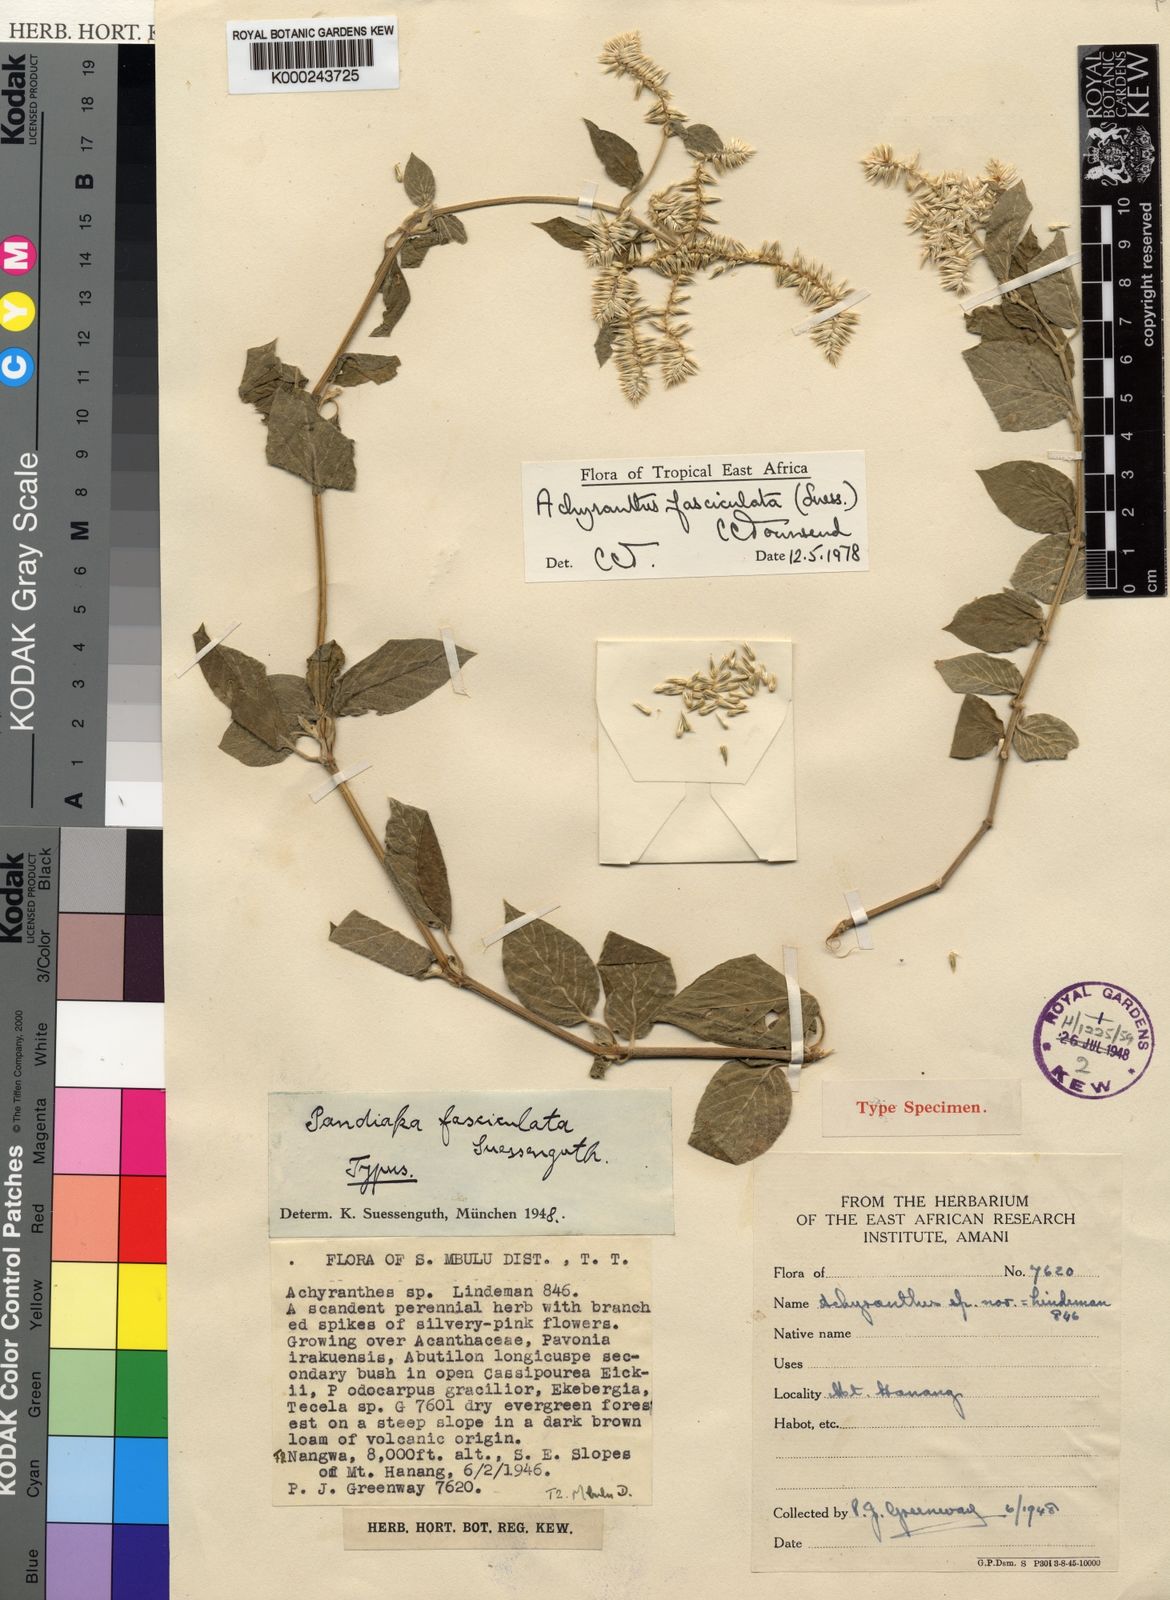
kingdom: Plantae
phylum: Tracheophyta
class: Magnoliopsida
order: Caryophyllales
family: Amaranthaceae
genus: Achyranthes
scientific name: Achyranthes fasciculata
